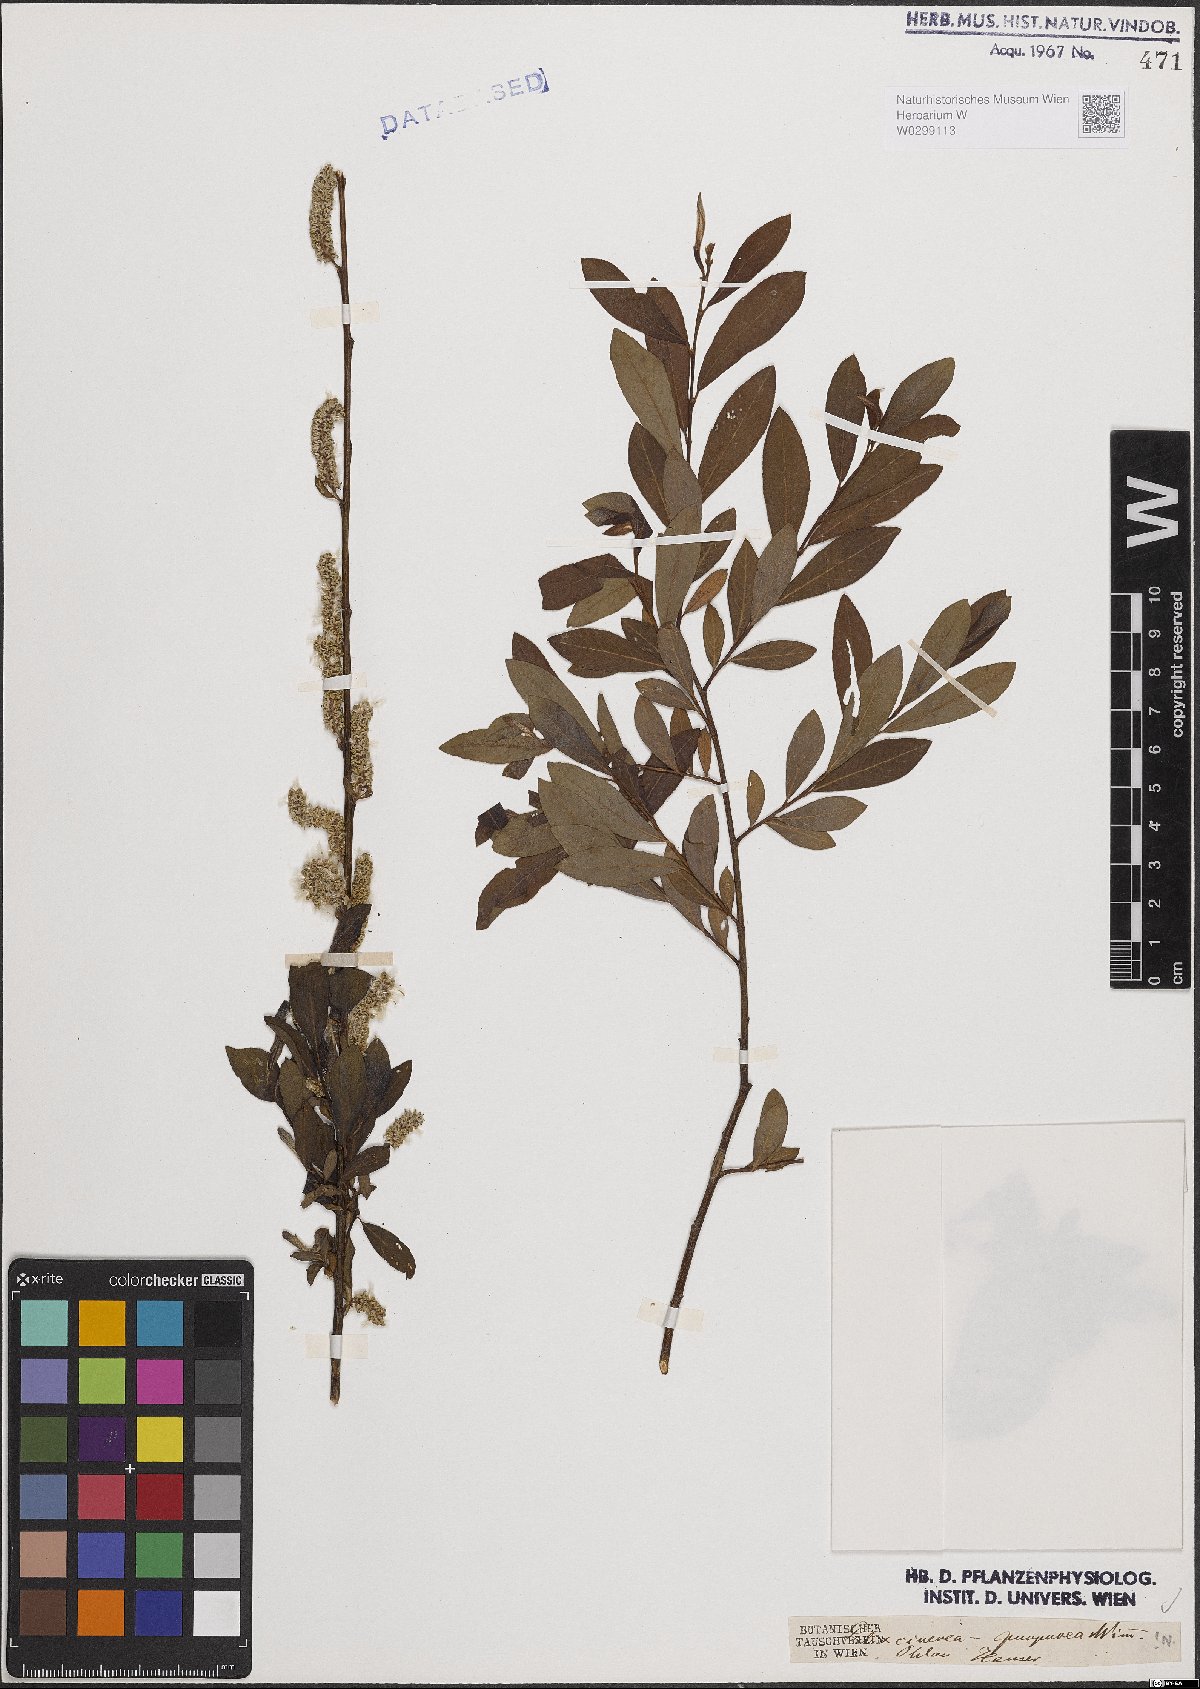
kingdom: Plantae
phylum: Tracheophyta
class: Magnoliopsida
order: Malpighiales
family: Salicaceae
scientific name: Salicaceae
